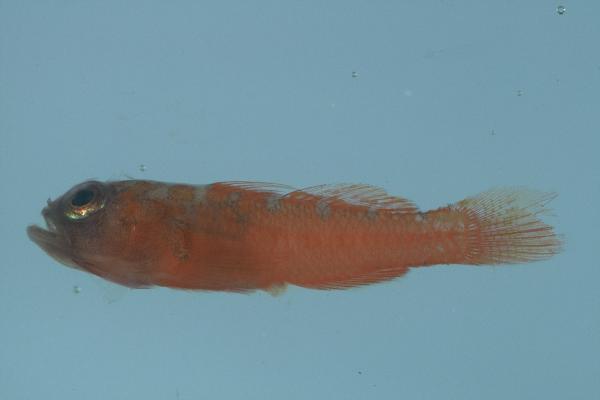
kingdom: Animalia
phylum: Chordata
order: Perciformes
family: Gobiidae
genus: Trimma
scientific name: Trimma omanense
